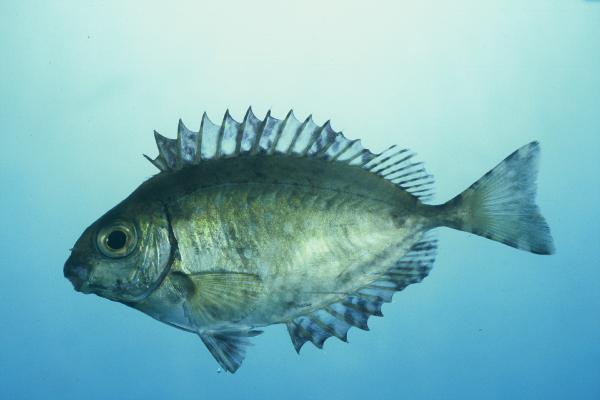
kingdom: Animalia
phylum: Chordata
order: Perciformes
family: Siganidae
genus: Siganus
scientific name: Siganus sutor
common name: Shoemaker spinefoot
